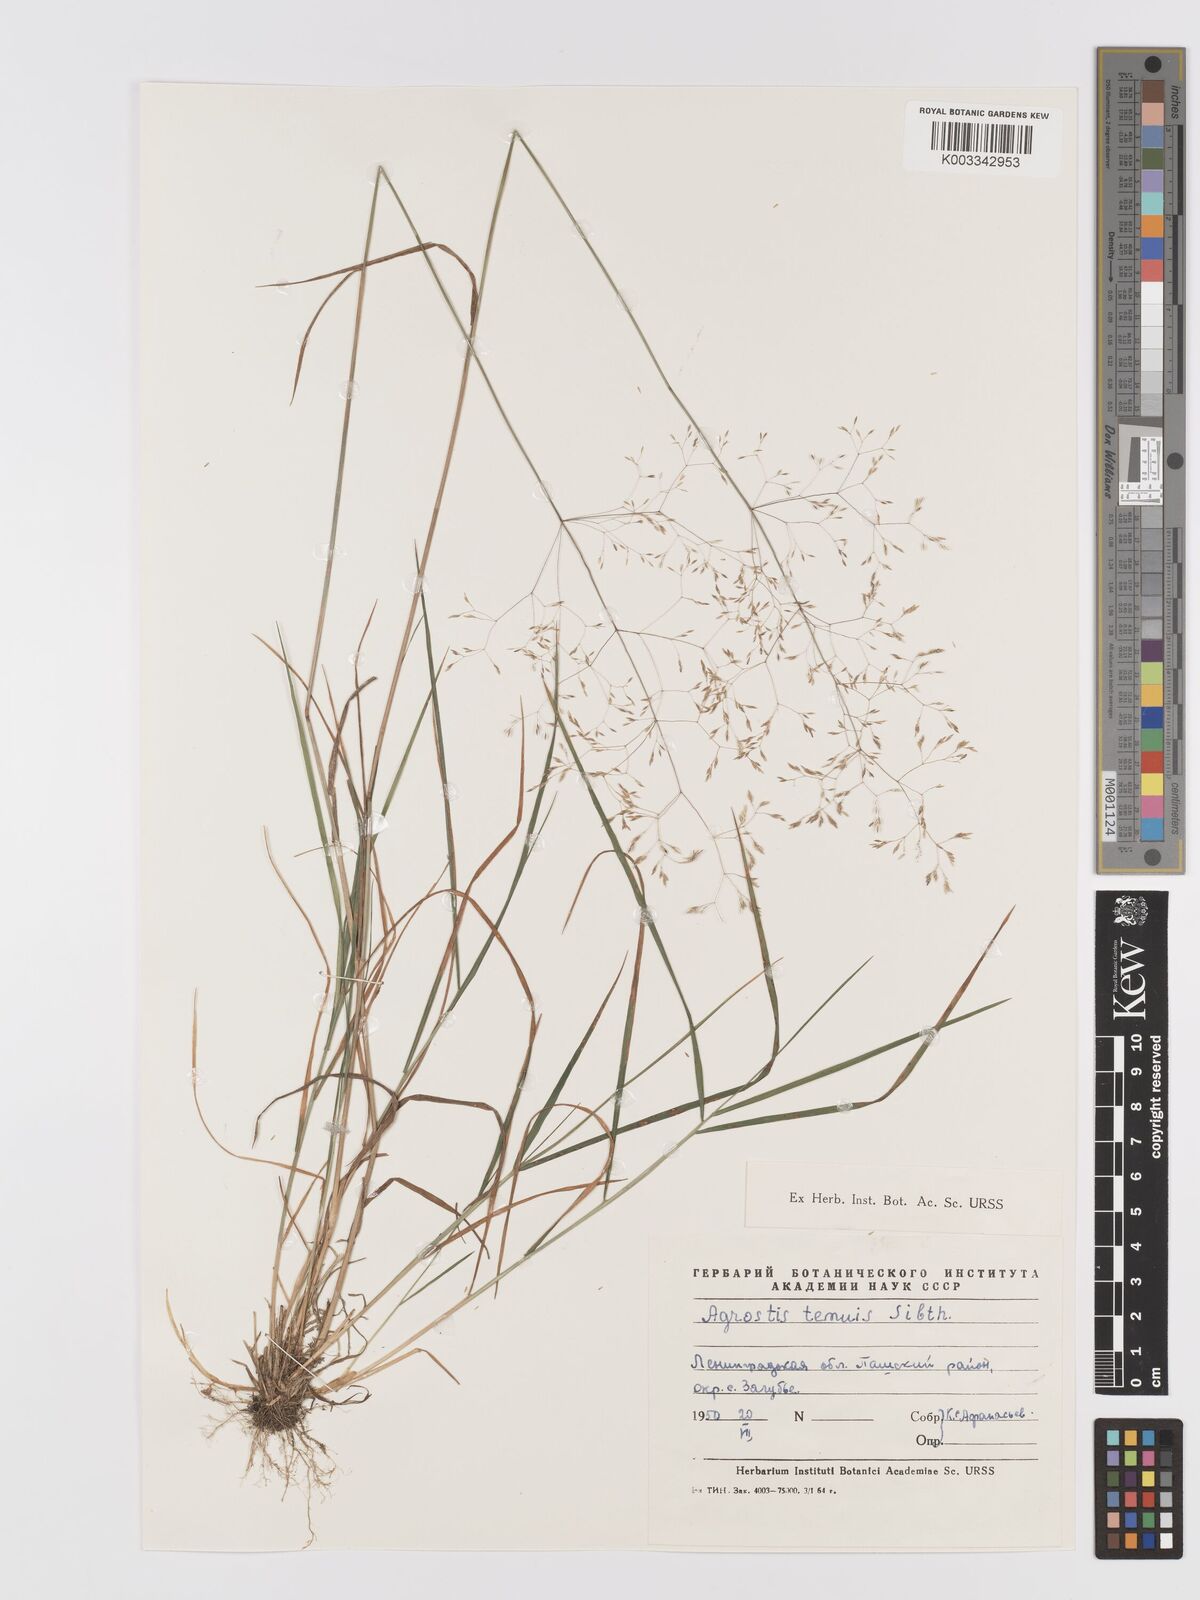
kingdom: Plantae
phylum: Tracheophyta
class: Liliopsida
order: Poales
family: Poaceae
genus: Agrostis
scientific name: Agrostis capillaris
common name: Colonial bentgrass
